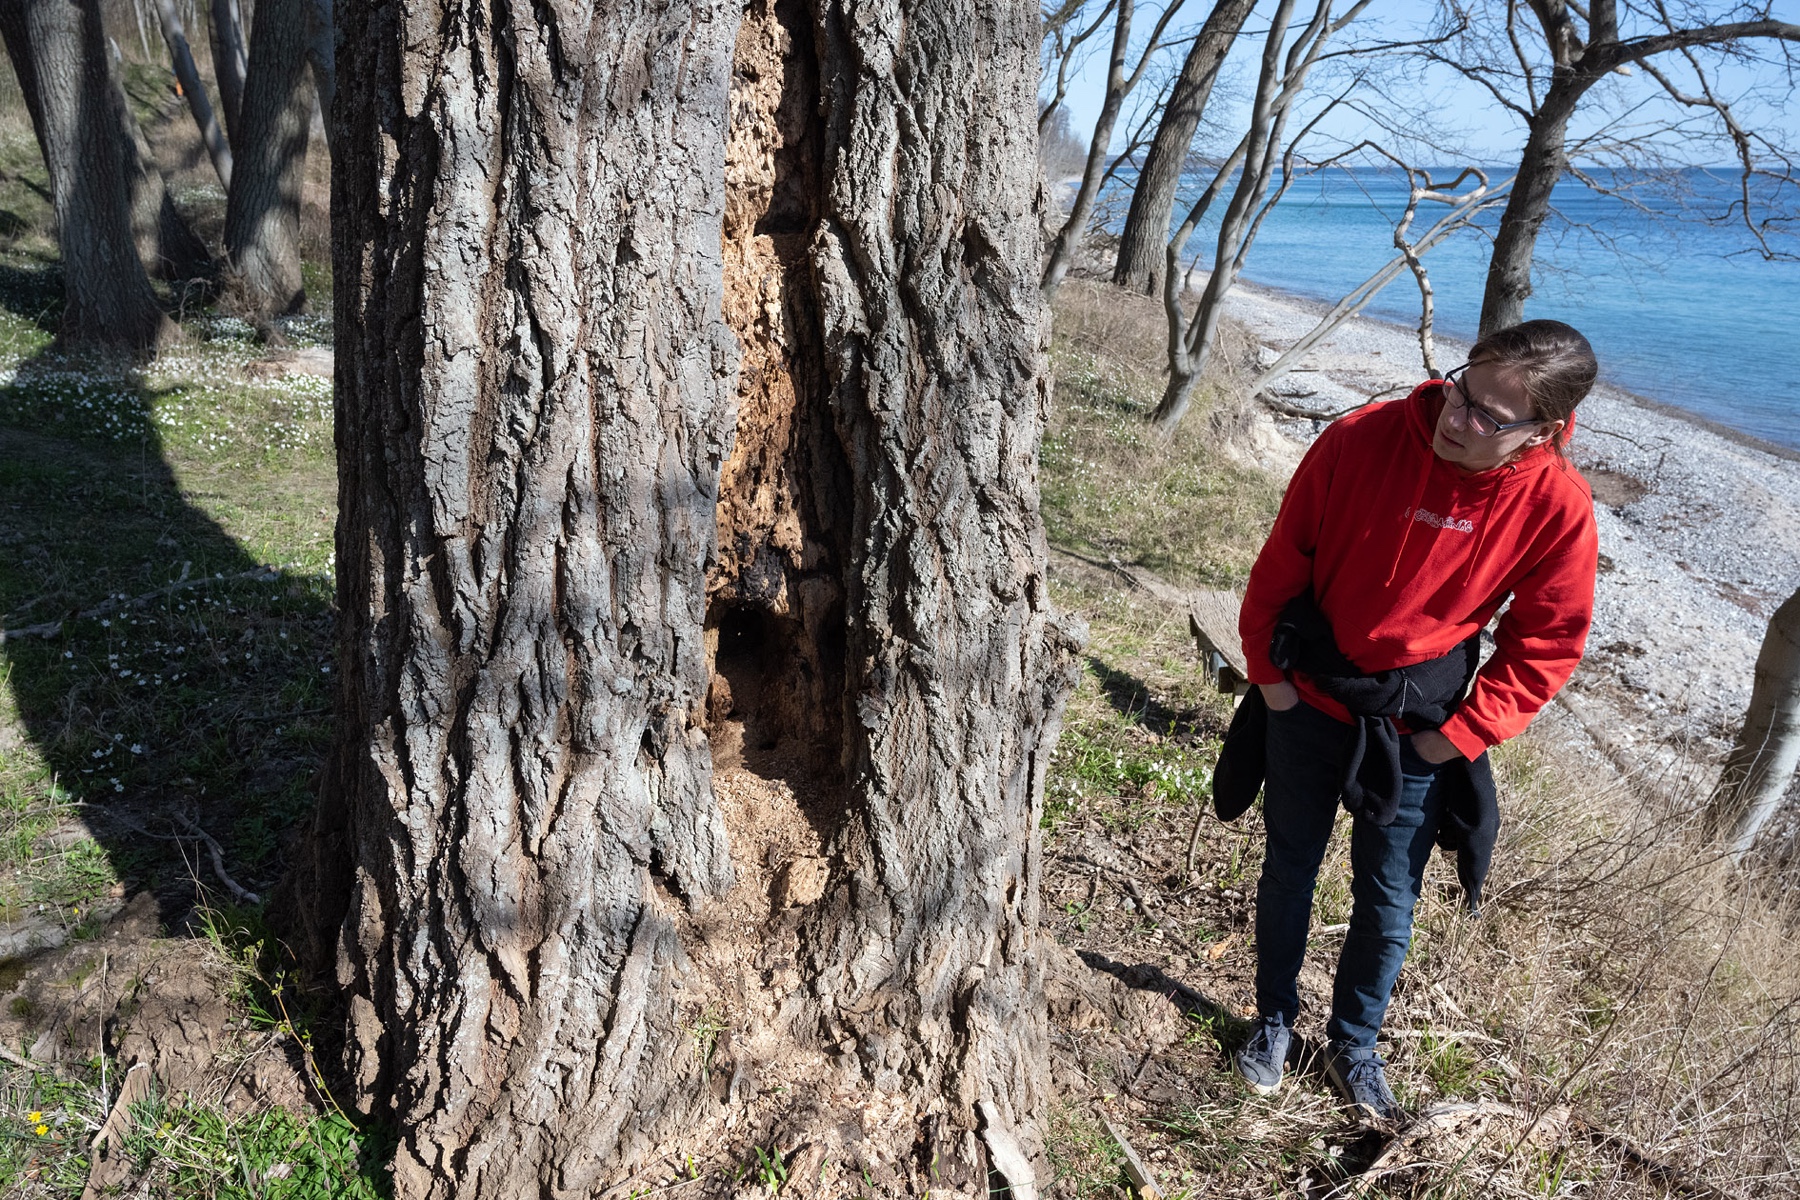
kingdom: Fungi
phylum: Basidiomycota
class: Agaricomycetes
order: Hymenochaetales
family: Hymenochaetaceae
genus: Phellinus
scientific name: Phellinus populicola
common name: poppel-ildporesvamp
